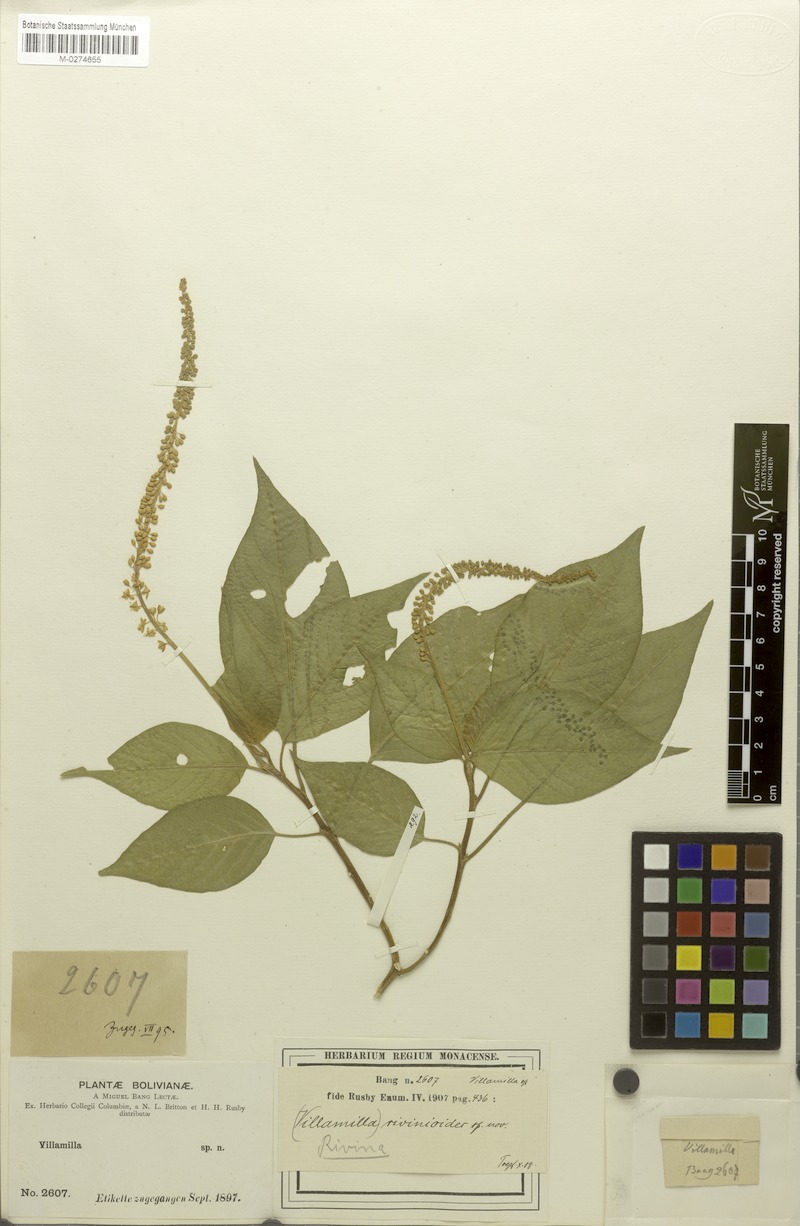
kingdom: Plantae
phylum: Tracheophyta
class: Magnoliopsida
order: Caryophyllales
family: Phytolaccaceae
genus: Schindleria
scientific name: Schindleria densiflora
